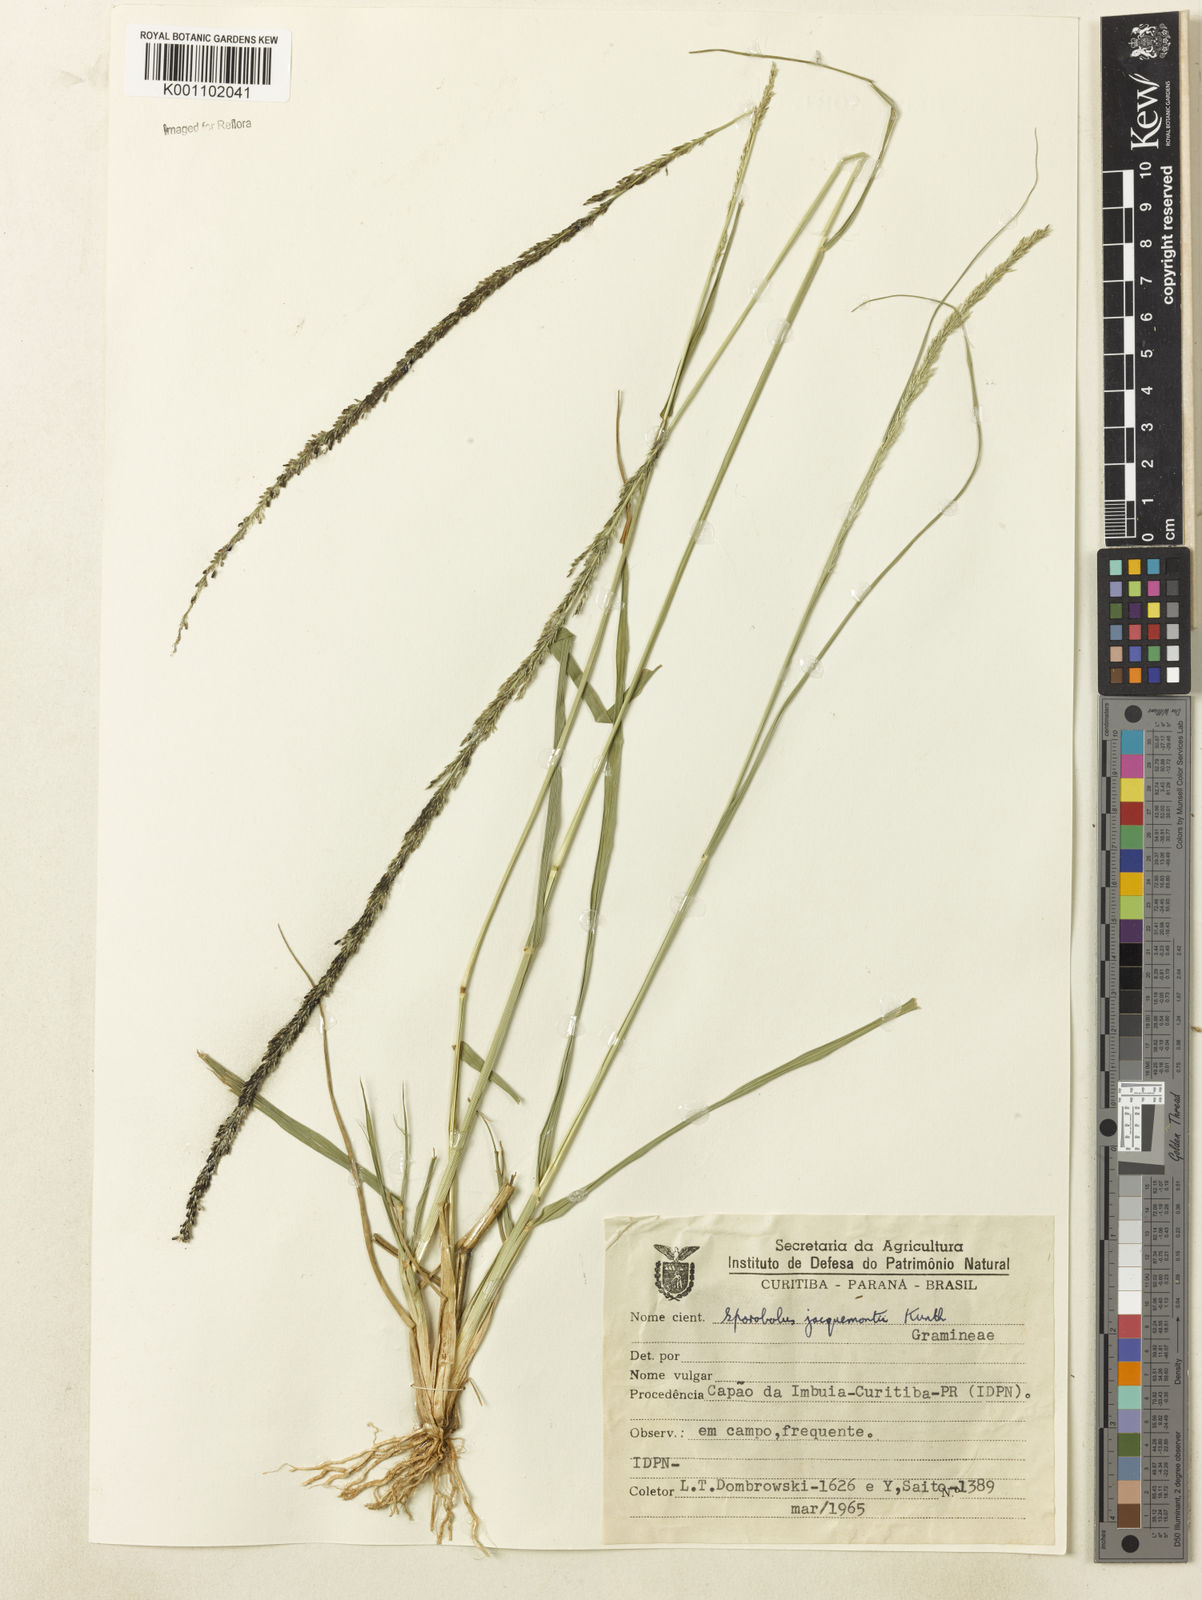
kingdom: Plantae
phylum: Tracheophyta
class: Liliopsida
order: Poales
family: Poaceae
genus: Sporobolus
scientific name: Sporobolus pyramidalis
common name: West indian dropseed
